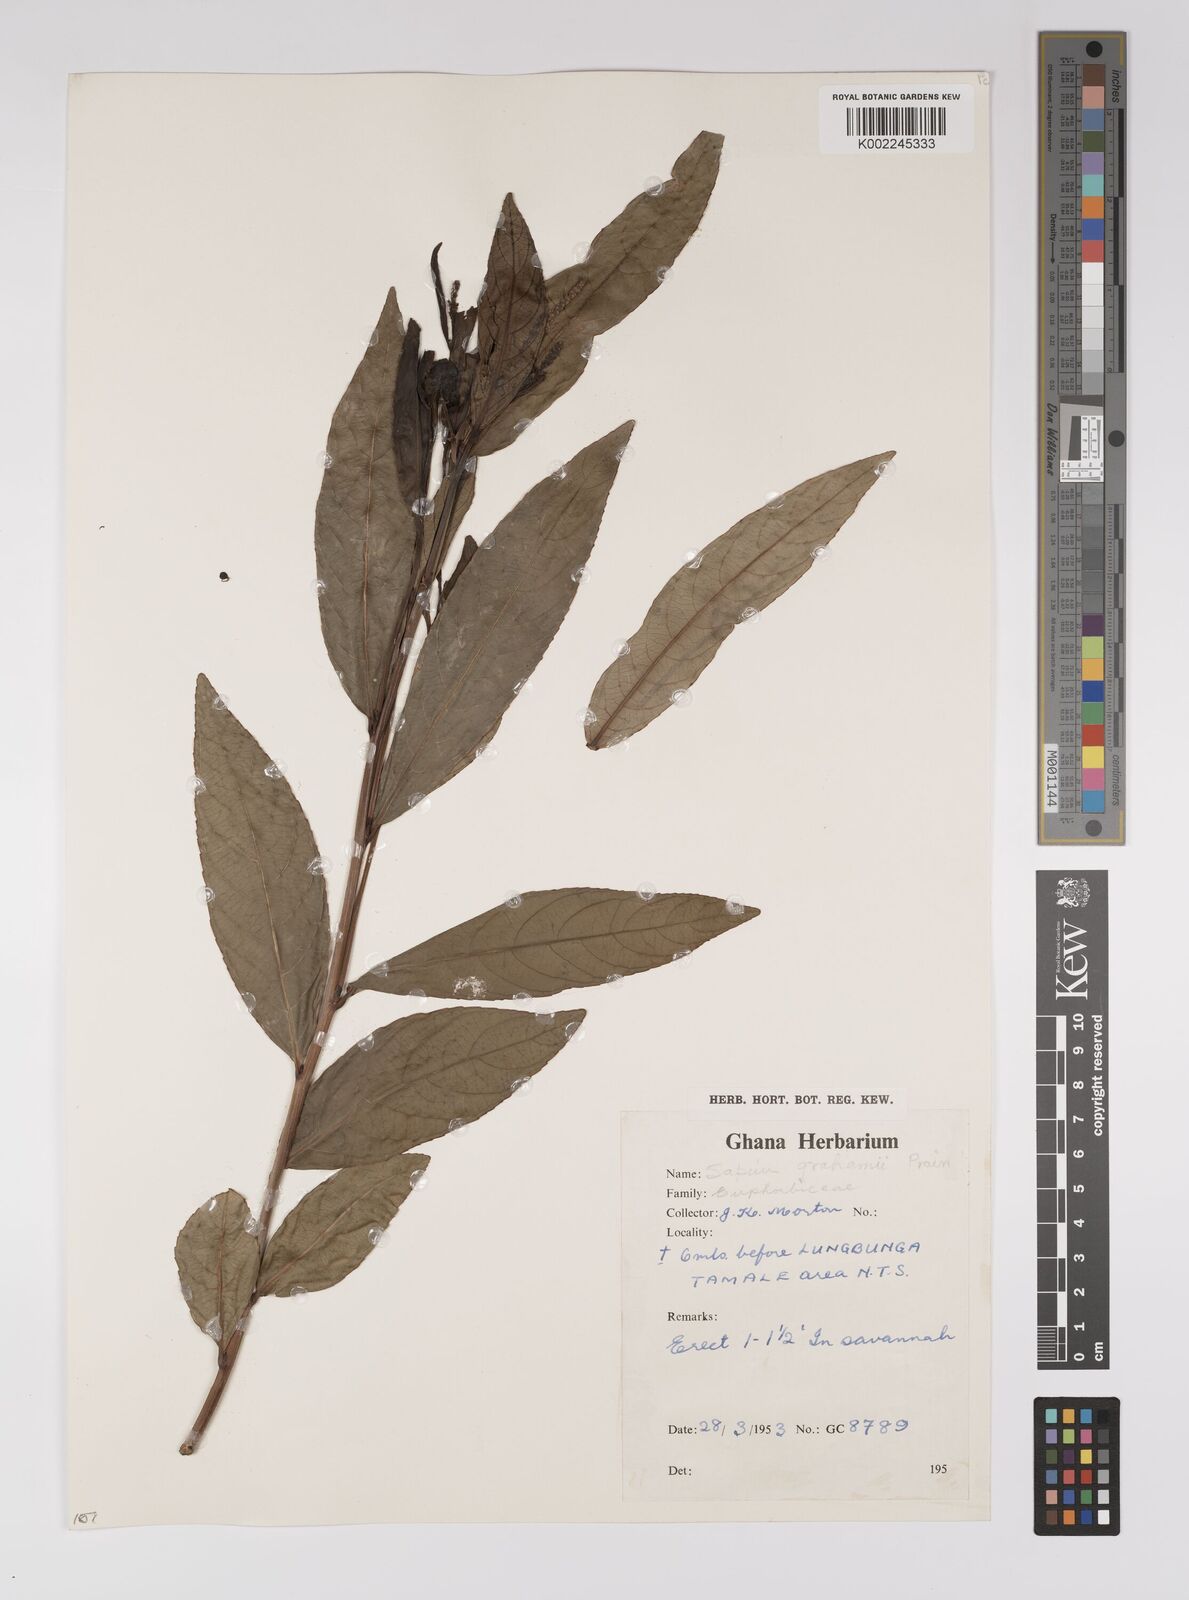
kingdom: Plantae
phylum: Tracheophyta
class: Magnoliopsida
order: Malpighiales
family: Euphorbiaceae
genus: Excoecaria
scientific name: Excoecaria grahamii
